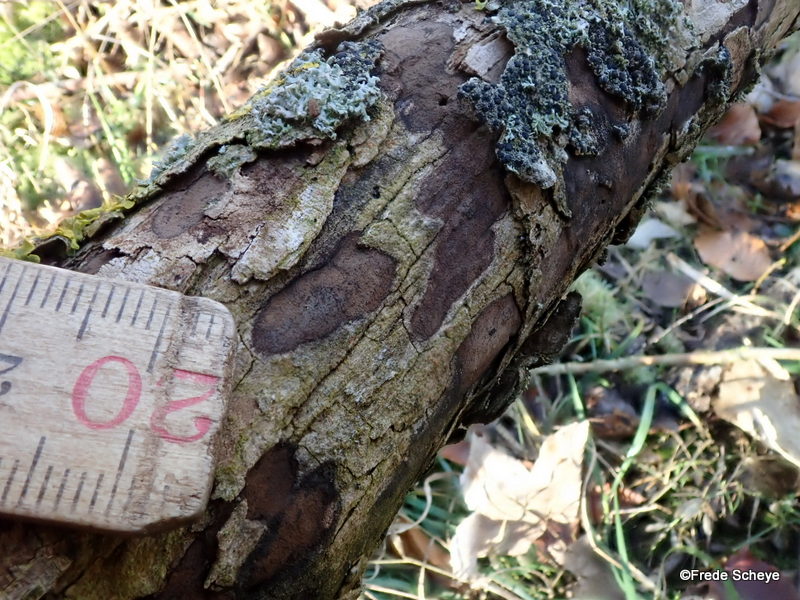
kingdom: Fungi
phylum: Ascomycota
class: Sordariomycetes
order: Xylariales
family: Hypoxylaceae
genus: Hypoxylon
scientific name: Hypoxylon petriniae
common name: nedsænket kulbær
